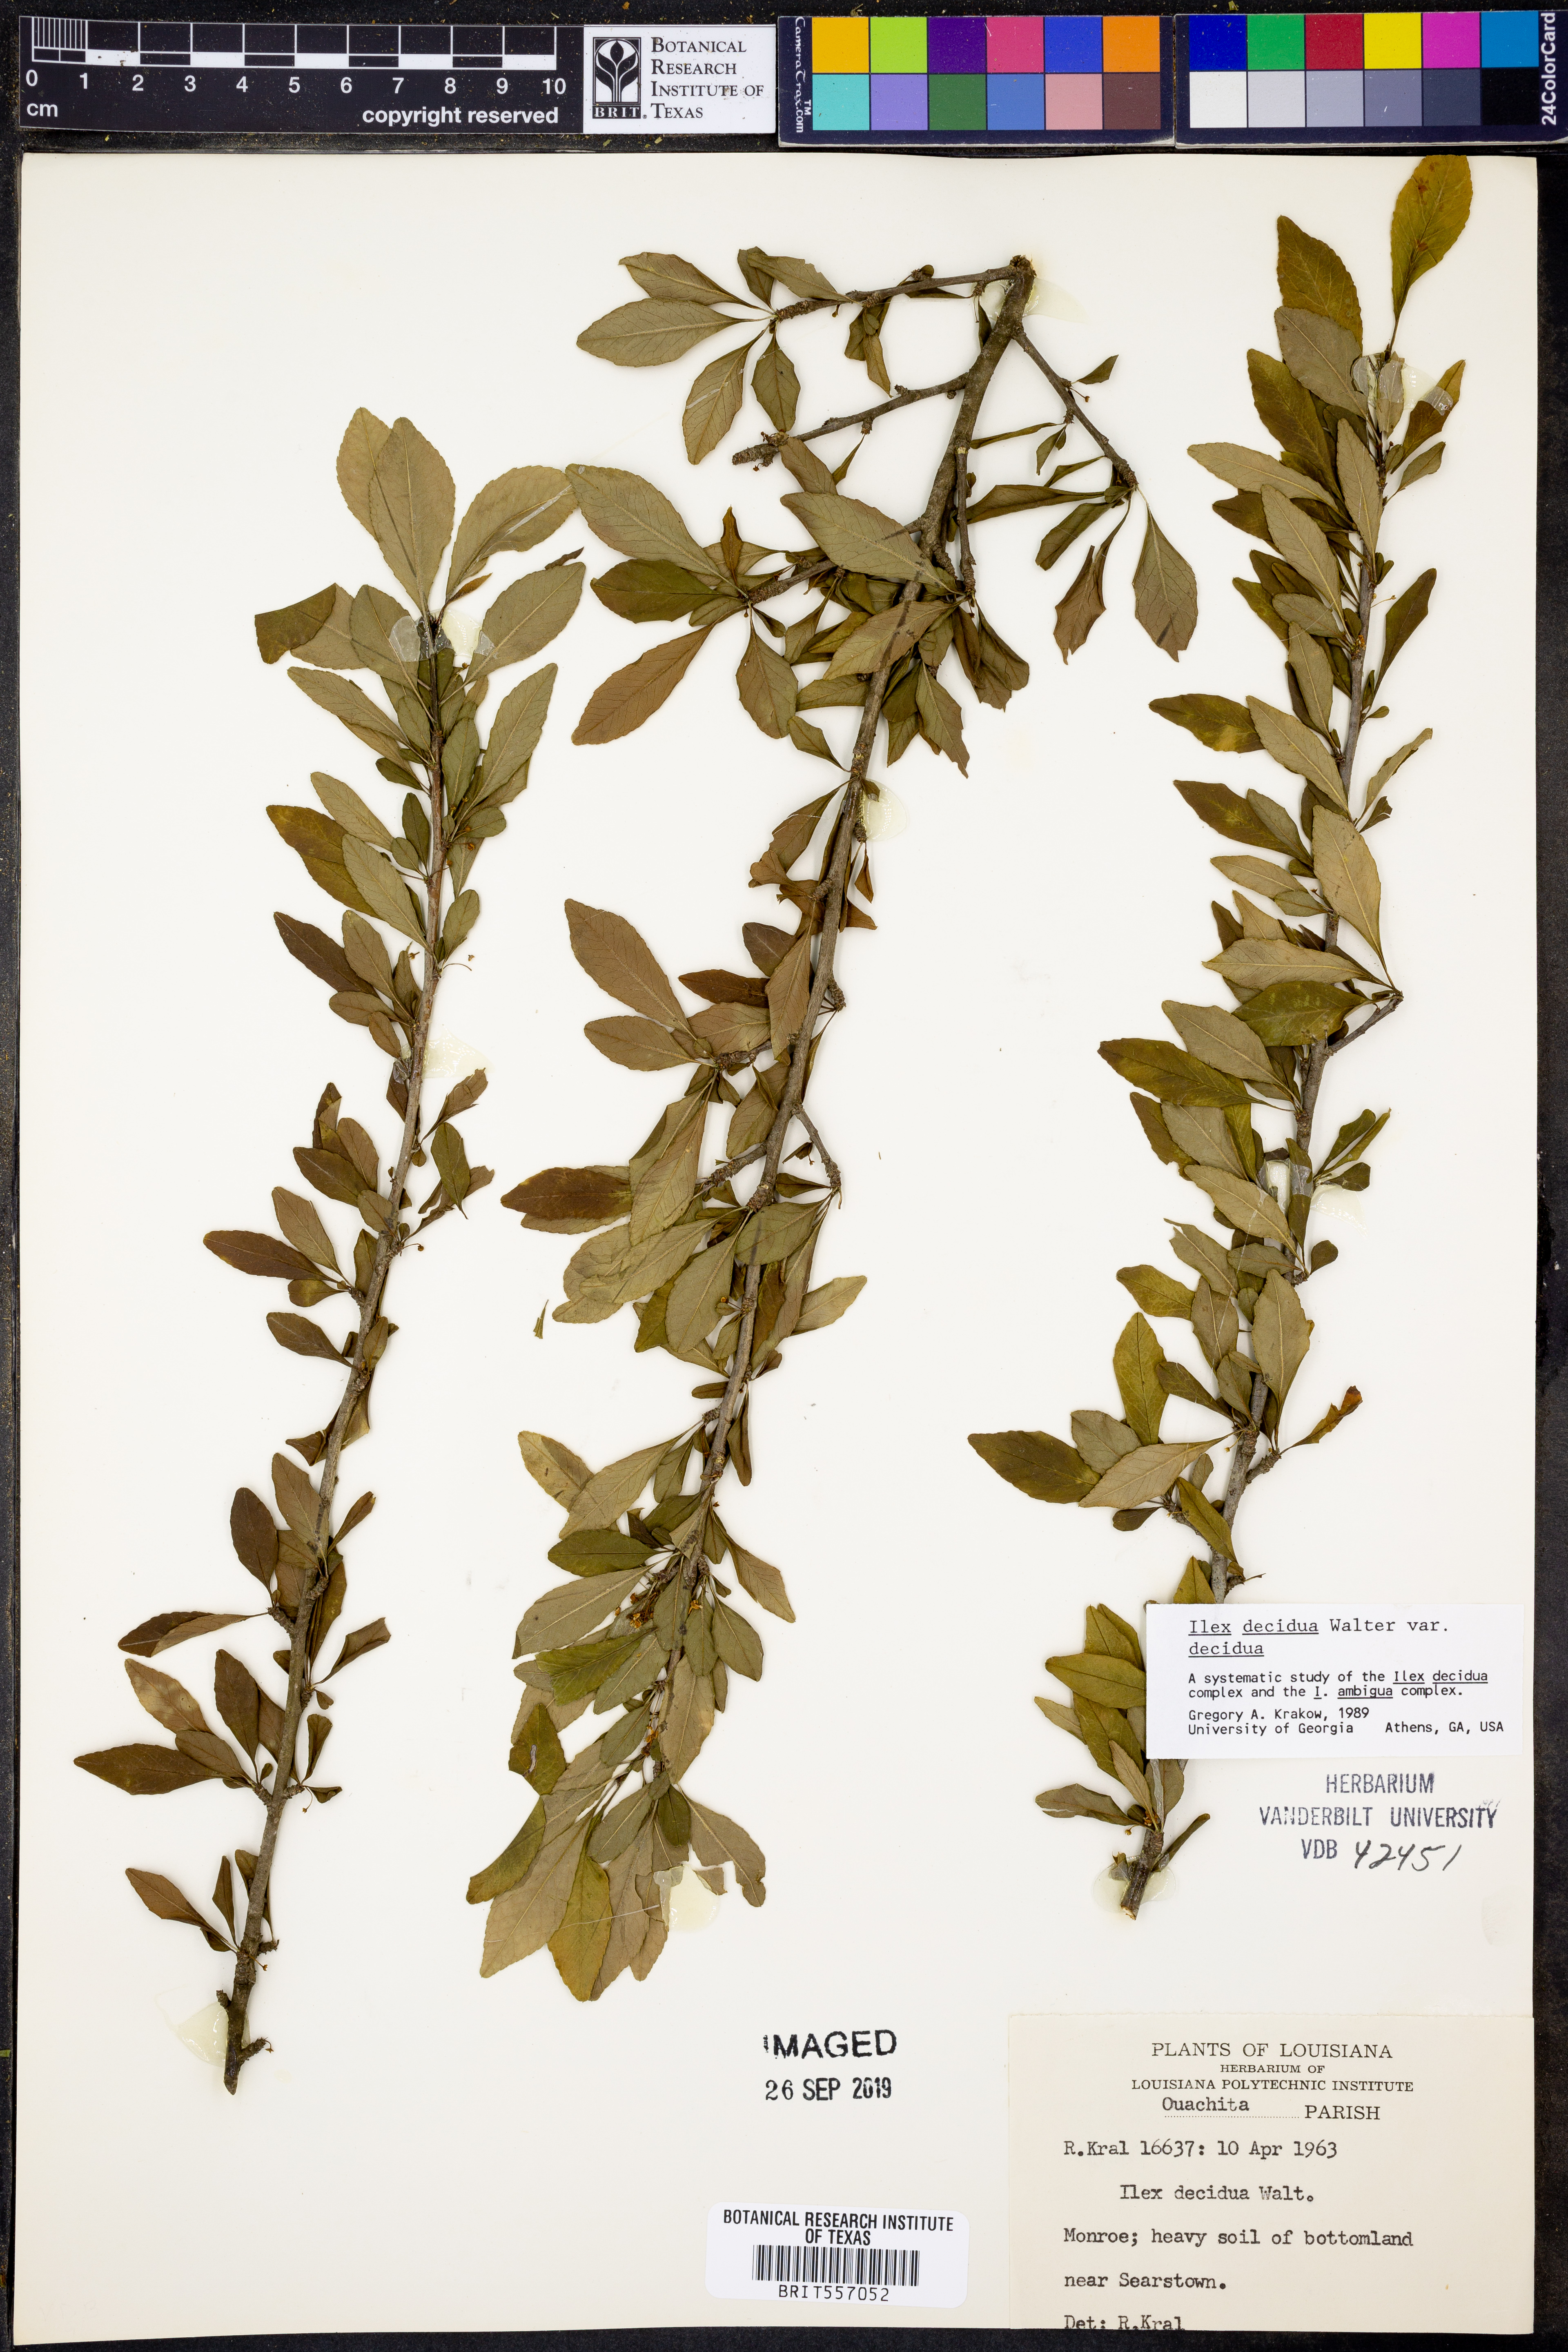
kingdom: Plantae
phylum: Tracheophyta
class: Magnoliopsida
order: Aquifoliales
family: Aquifoliaceae
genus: Ilex
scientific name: Ilex decidua
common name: Possum-haw
